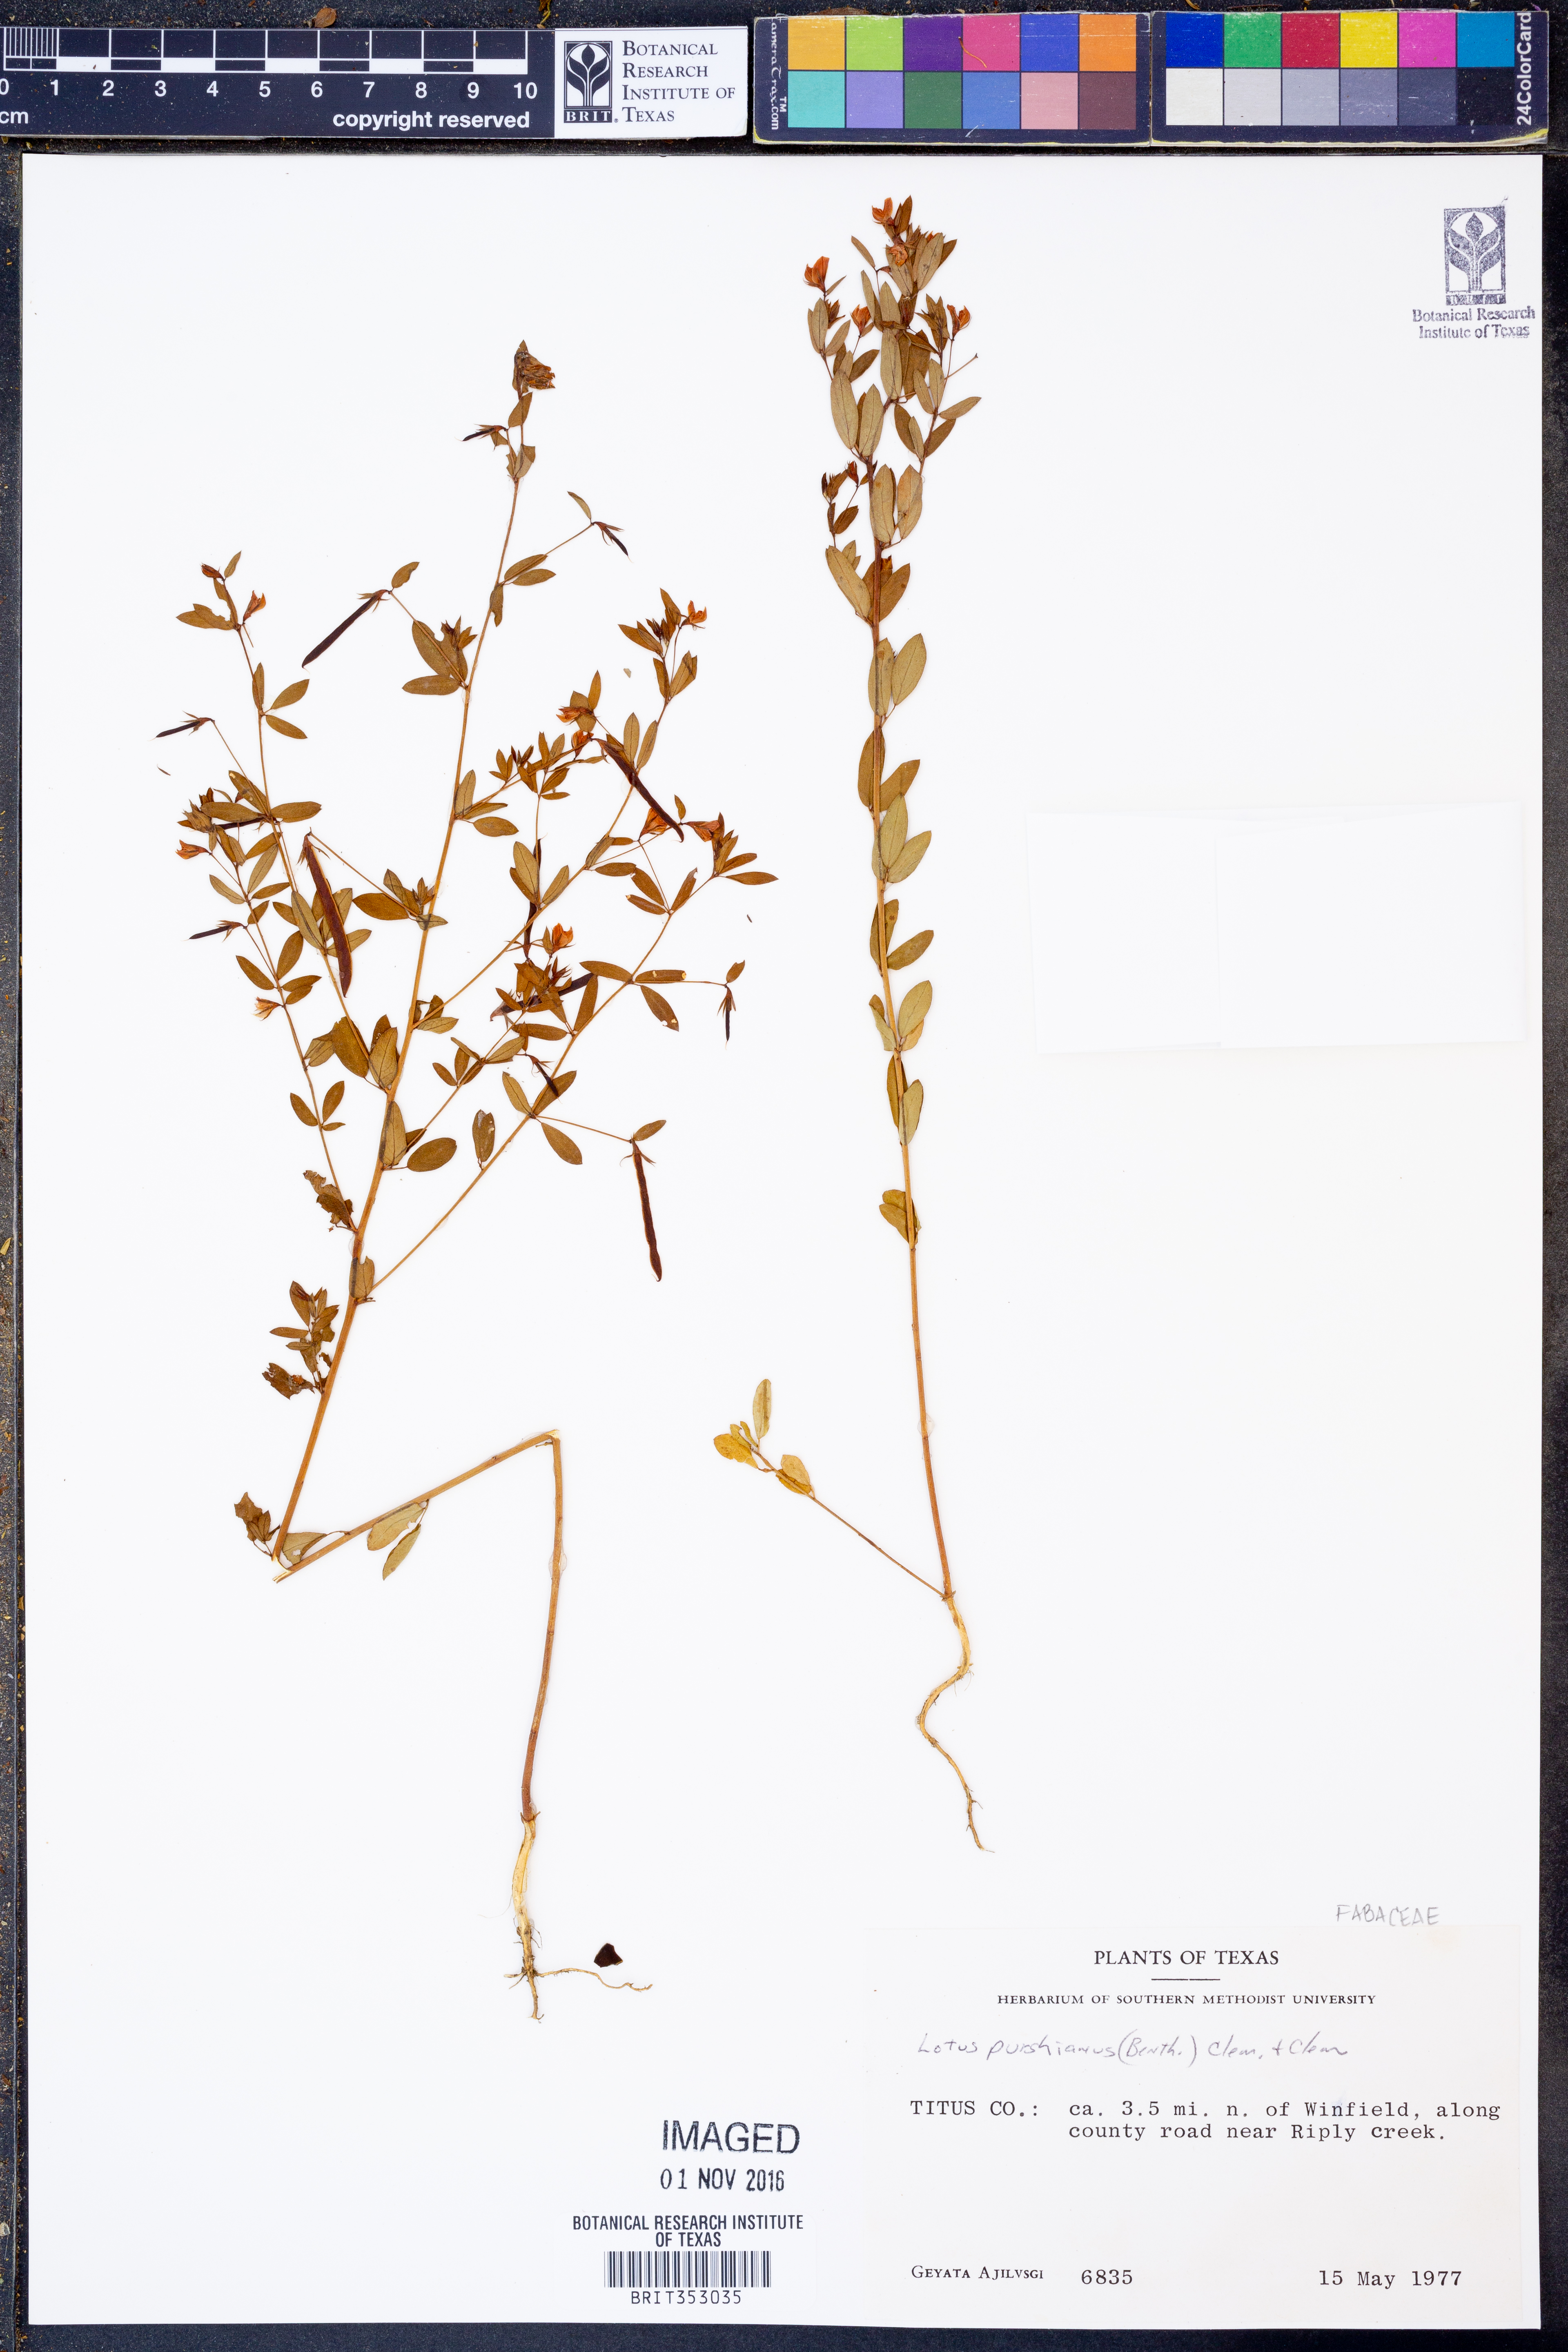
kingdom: Plantae
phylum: Tracheophyta
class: Magnoliopsida
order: Fabales
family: Fabaceae
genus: Acmispon
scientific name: Acmispon americanus
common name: American bird's-foot trefoil
